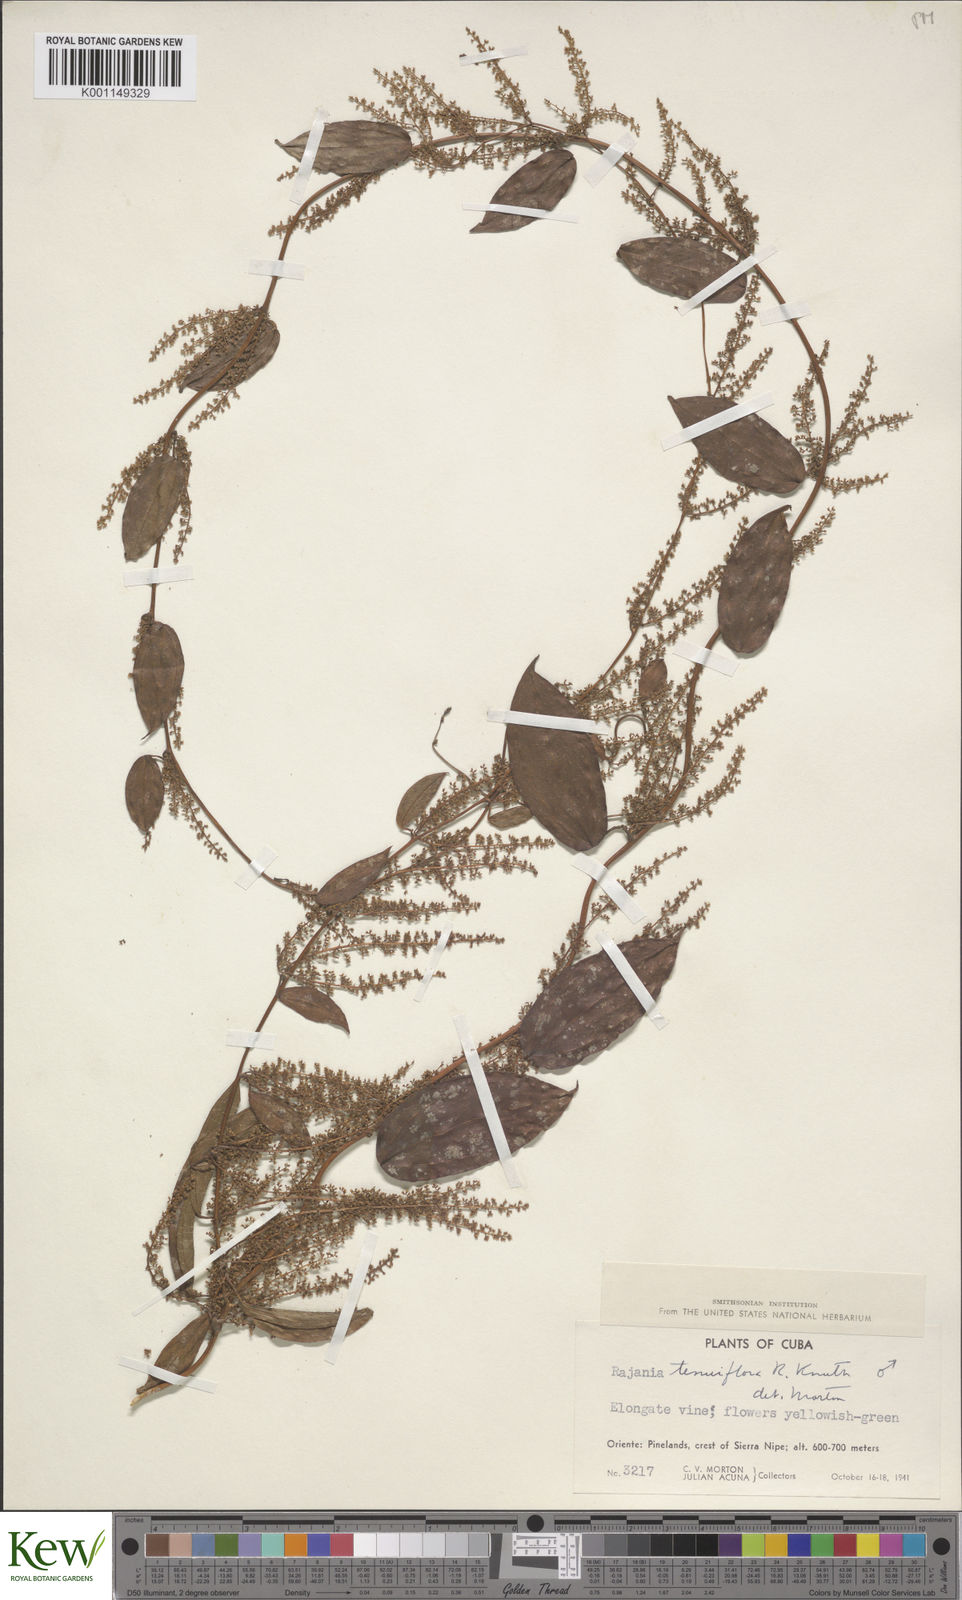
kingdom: Plantae
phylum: Tracheophyta
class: Liliopsida
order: Dioscoreales
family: Dioscoreaceae
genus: Dioscorea
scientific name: Dioscorea bulbifera
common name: Air yam
